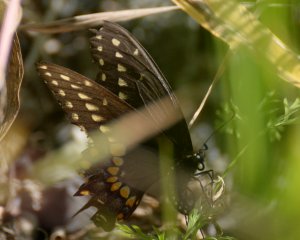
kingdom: Animalia
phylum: Arthropoda
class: Insecta
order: Lepidoptera
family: Papilionidae
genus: Papilio
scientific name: Papilio polyxenes
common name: Black Swallowtail
